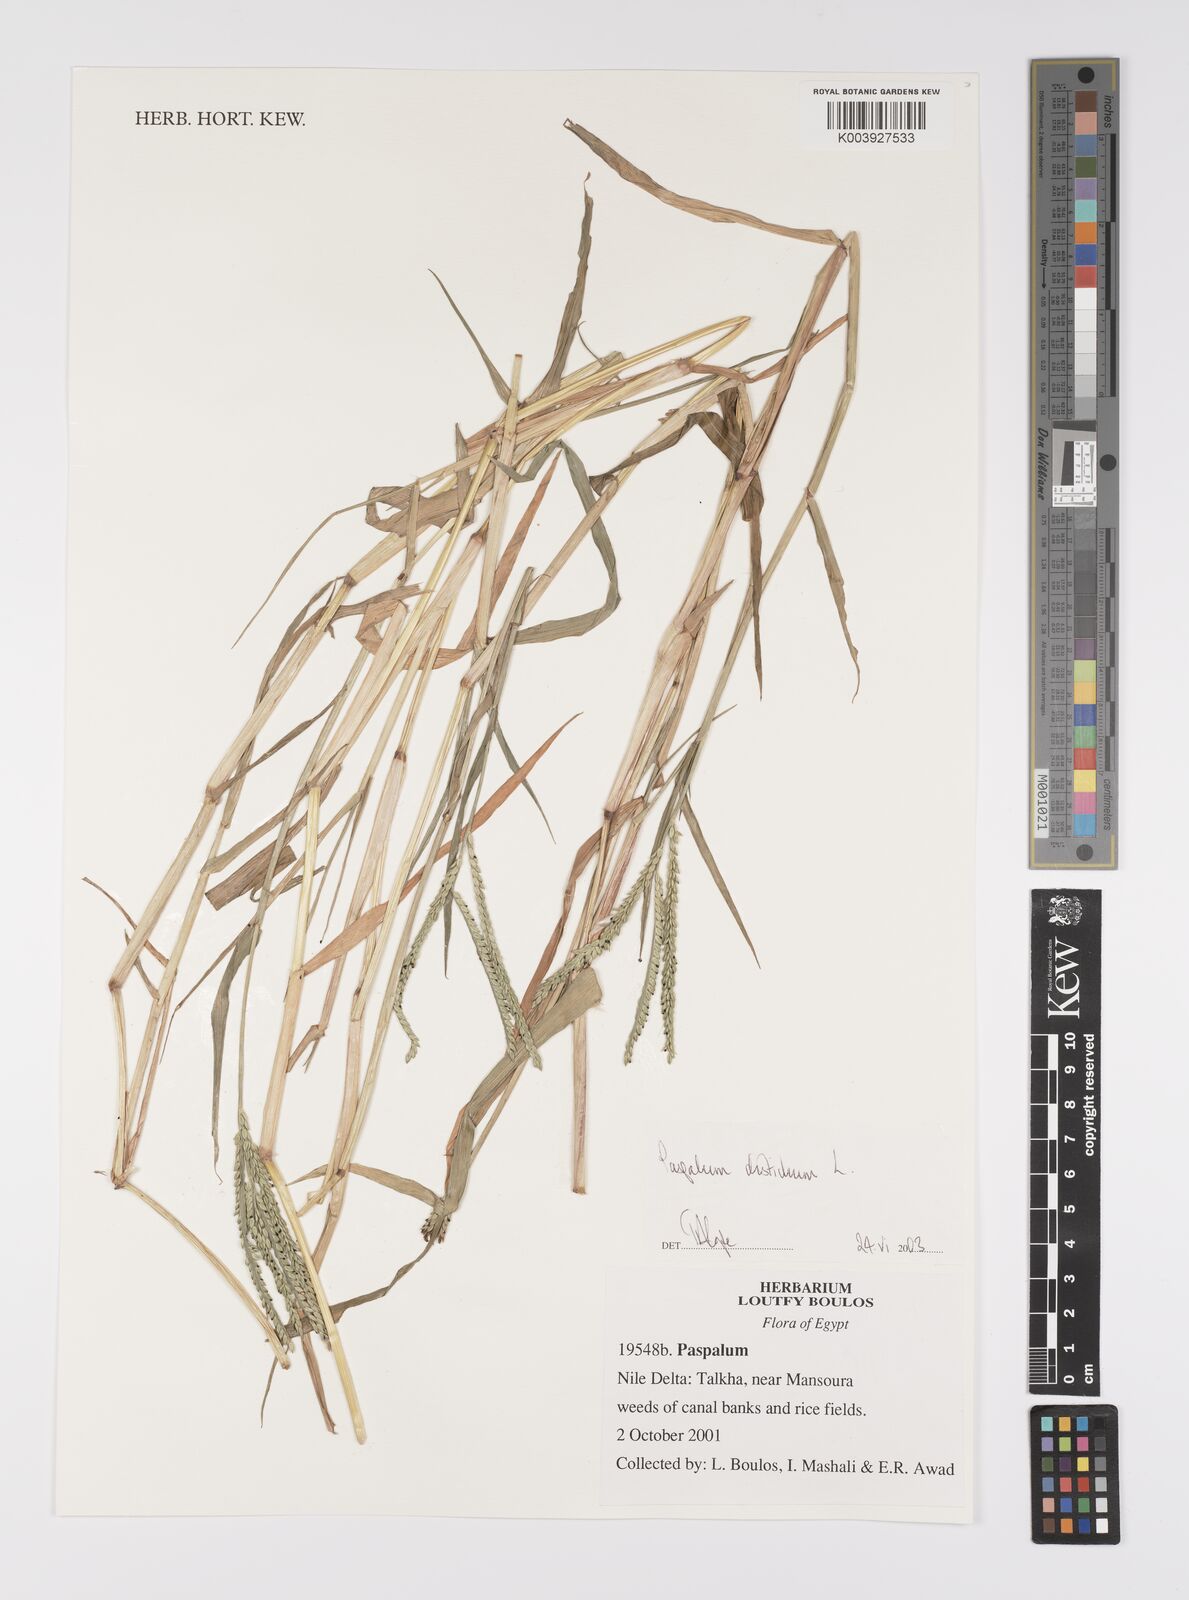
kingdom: Plantae
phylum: Tracheophyta
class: Liliopsida
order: Poales
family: Poaceae
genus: Paspalum
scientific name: Paspalum distichum
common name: Knotgrass
